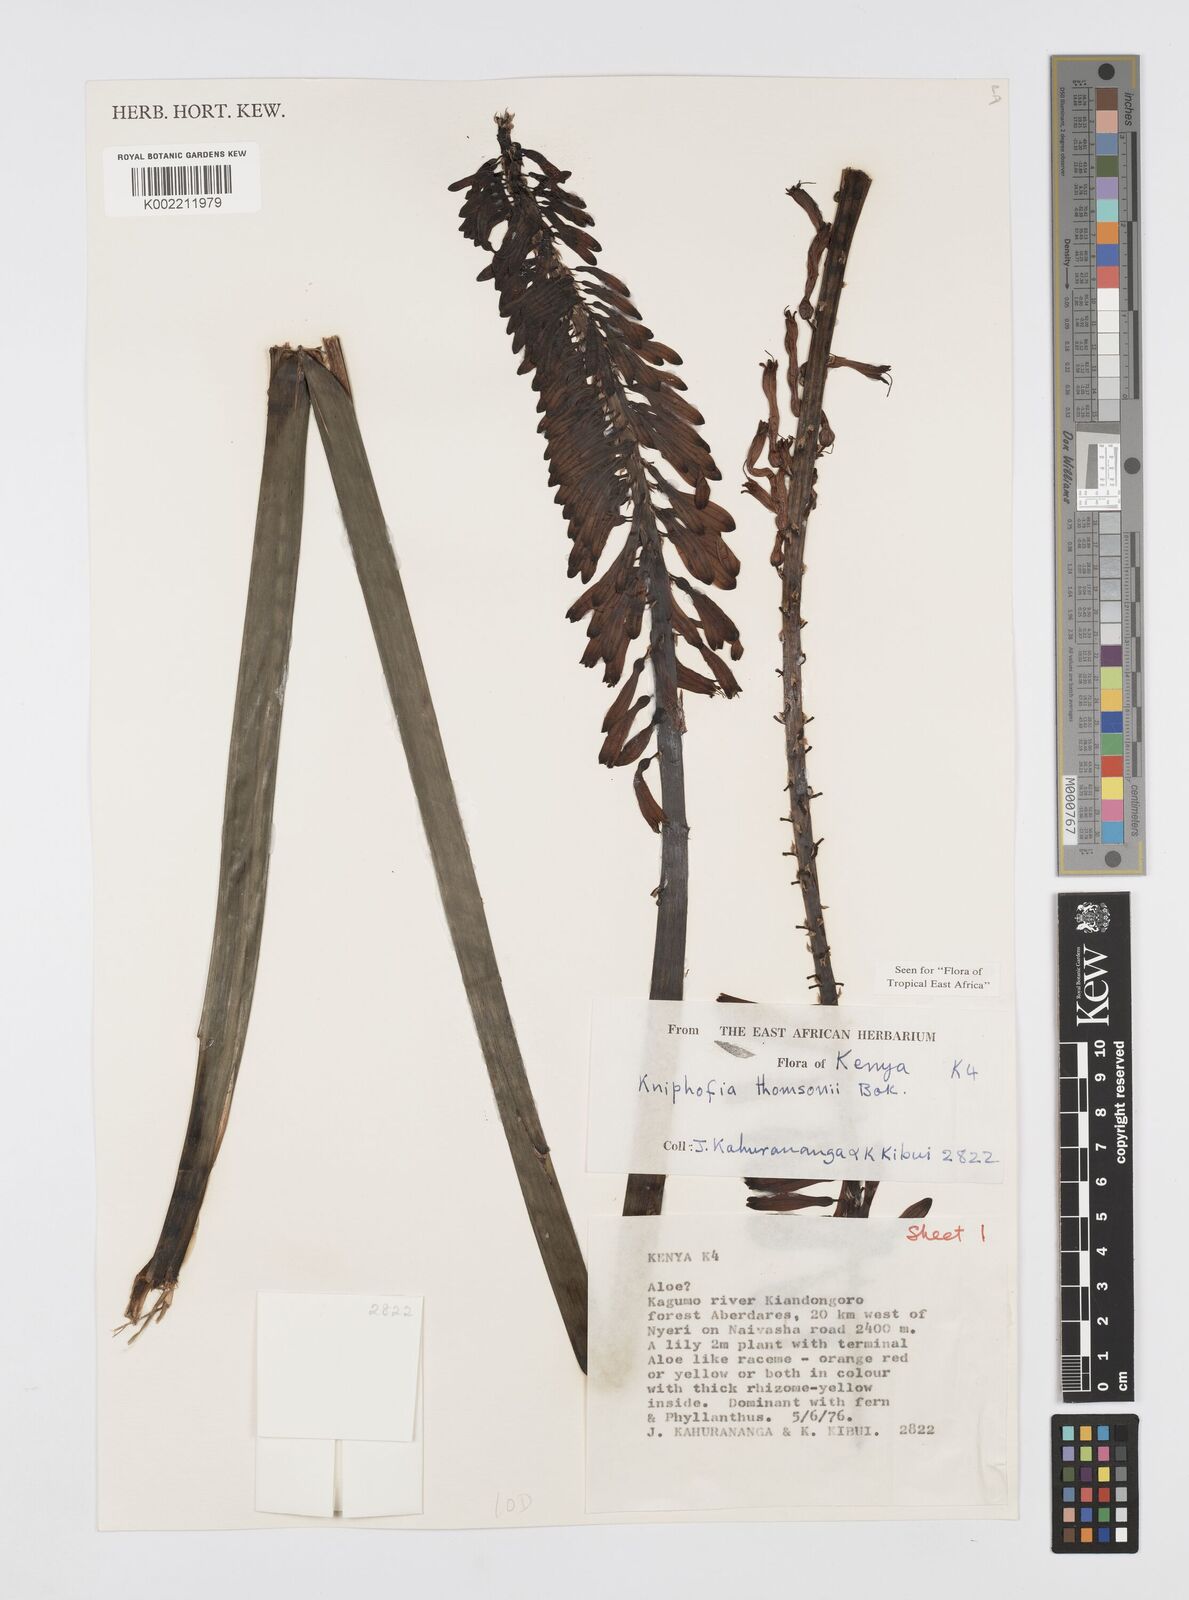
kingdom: Plantae
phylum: Tracheophyta
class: Liliopsida
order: Asparagales
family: Asphodelaceae
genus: Kniphofia
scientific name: Kniphofia thomsonii
